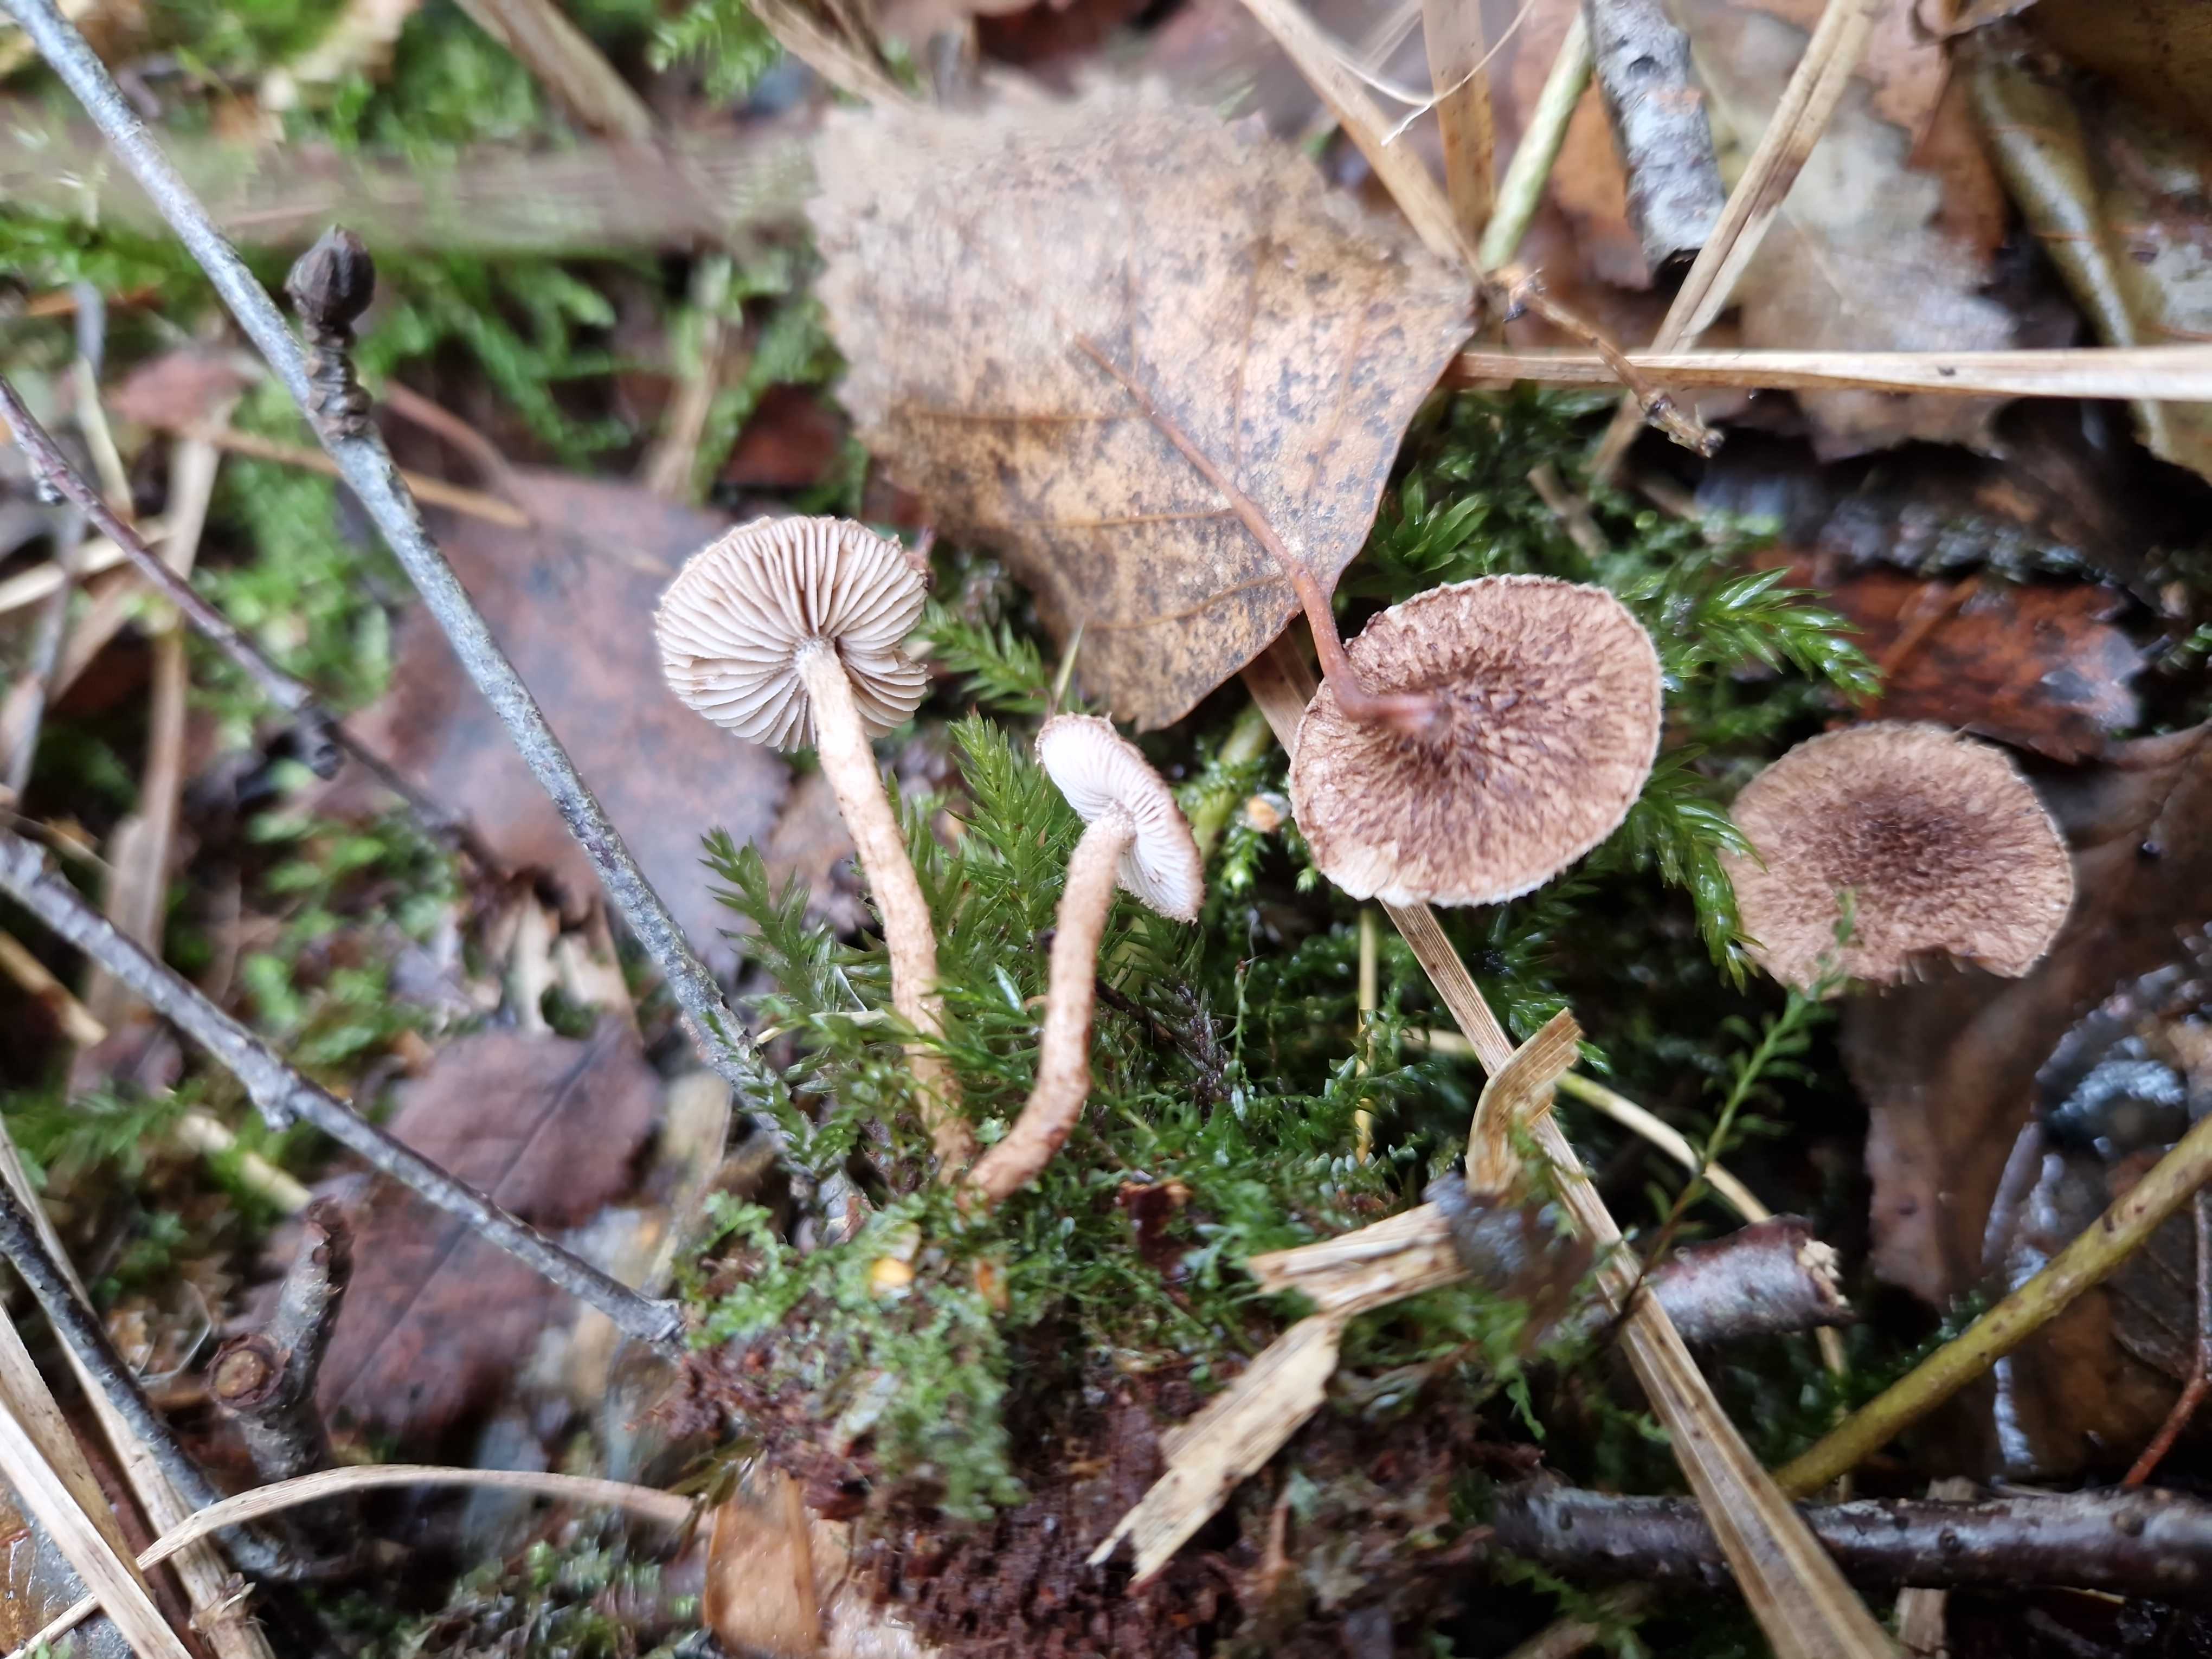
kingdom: Fungi
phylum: Basidiomycota
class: Agaricomycetes
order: Agaricales
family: Inocybaceae
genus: Inocybe
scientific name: Inocybe leptophylla
